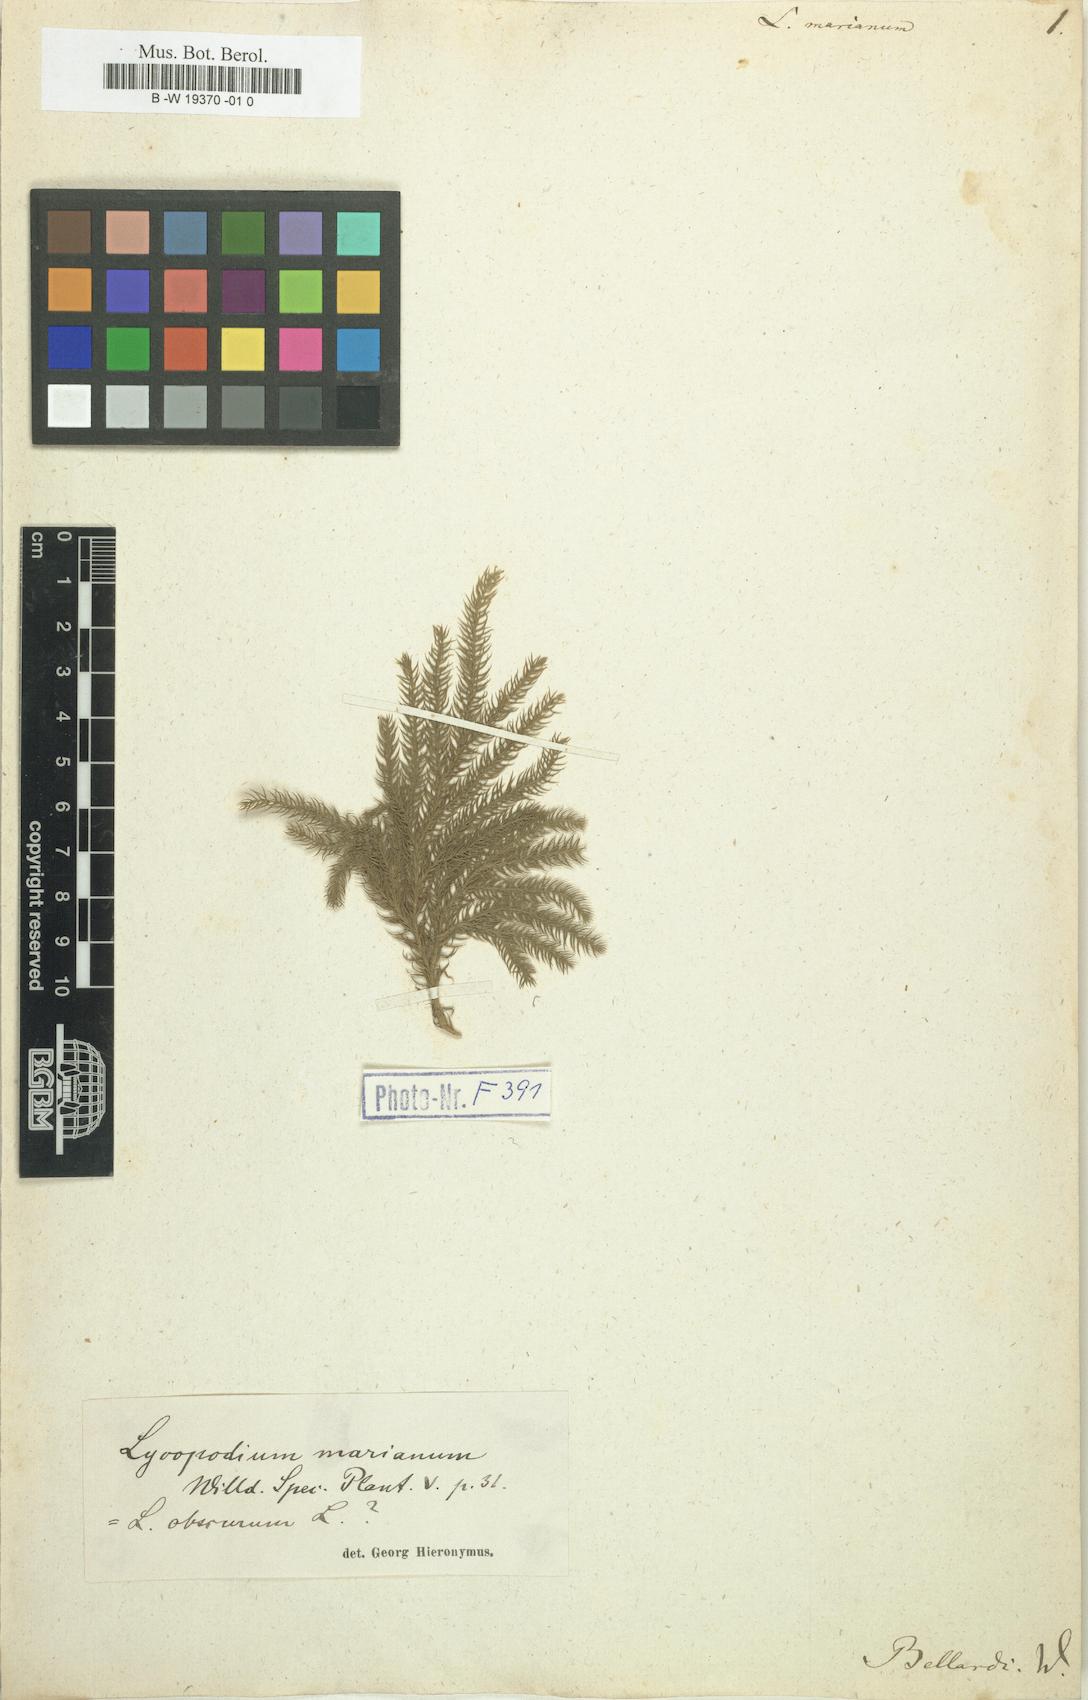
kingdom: Plantae
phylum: Tracheophyta
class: Lycopodiopsida
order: Lycopodiales
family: Lycopodiaceae
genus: Palhinhaea
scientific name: Palhinhaea cernua
